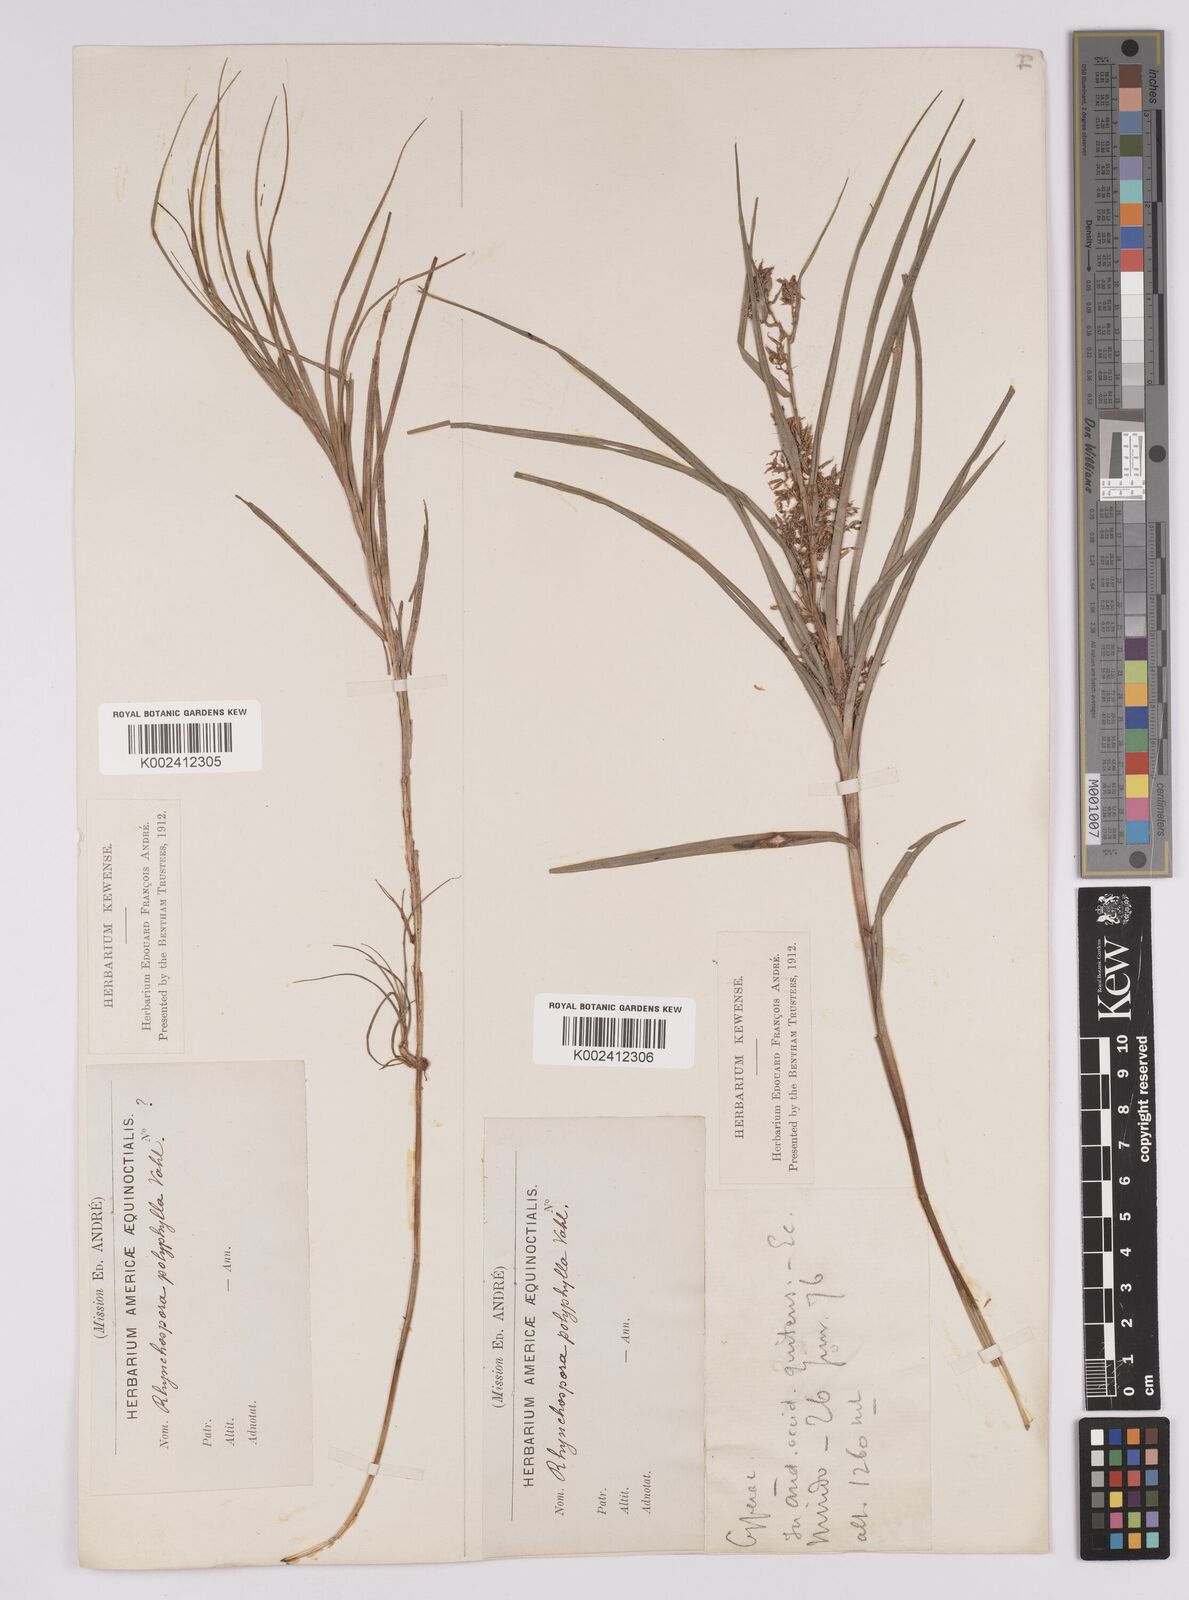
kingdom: Plantae
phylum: Tracheophyta
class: Liliopsida
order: Poales
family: Cyperaceae
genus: Rhynchospora
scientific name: Rhynchospora polyphylla
